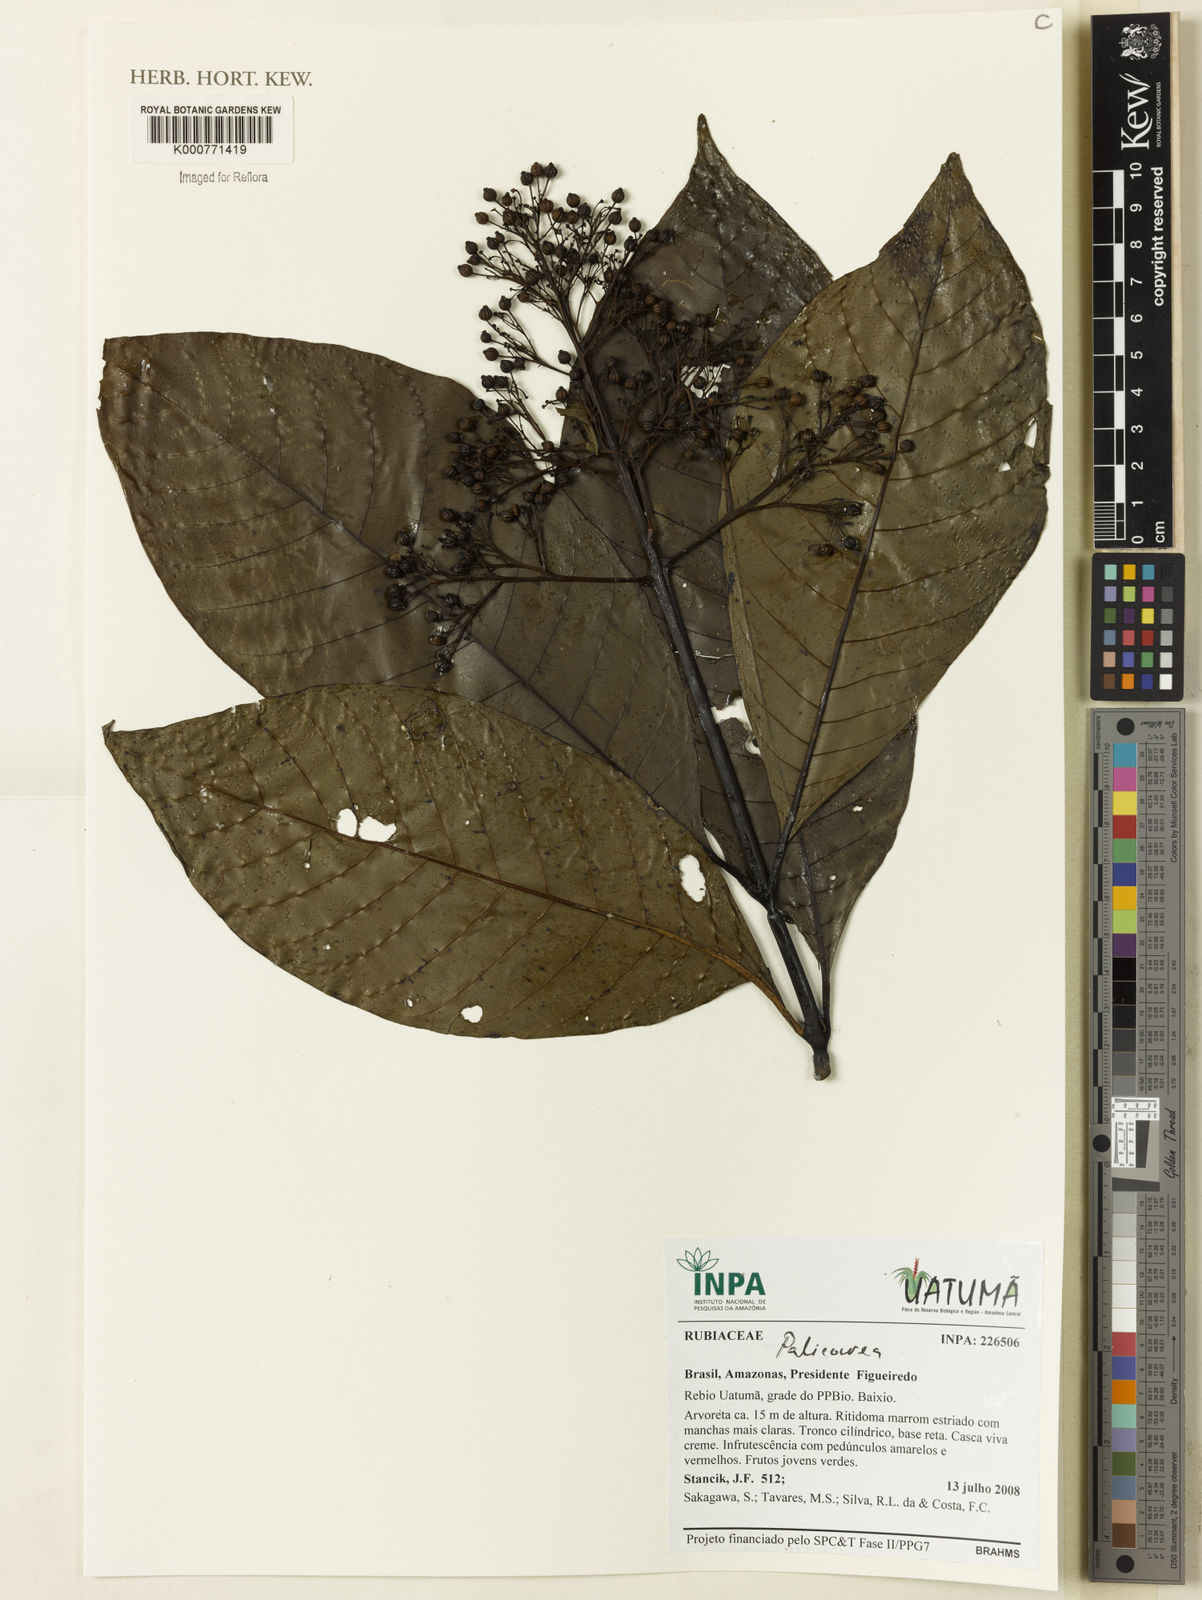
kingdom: Plantae
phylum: Tracheophyta
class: Magnoliopsida
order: Gentianales
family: Rubiaceae
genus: Palicourea
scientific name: Palicourea
